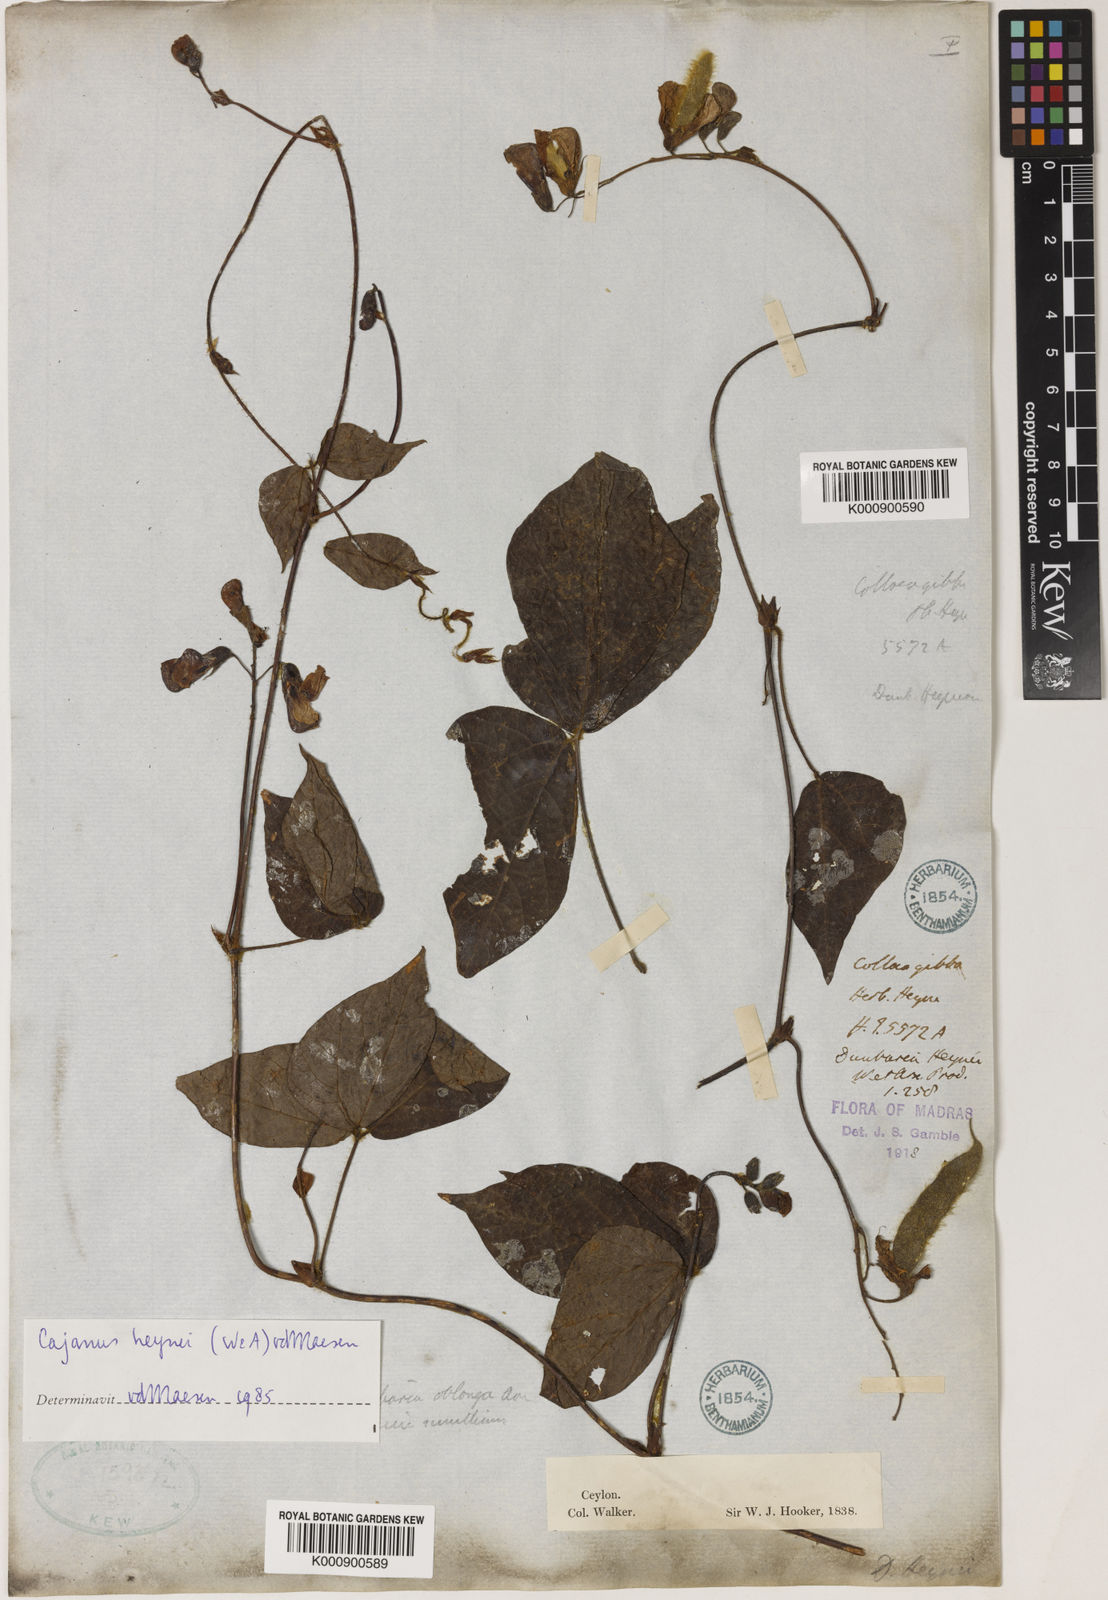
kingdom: Plantae
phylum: Tracheophyta
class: Magnoliopsida
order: Fabales
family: Fabaceae
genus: Cajanus
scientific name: Cajanus heynei
